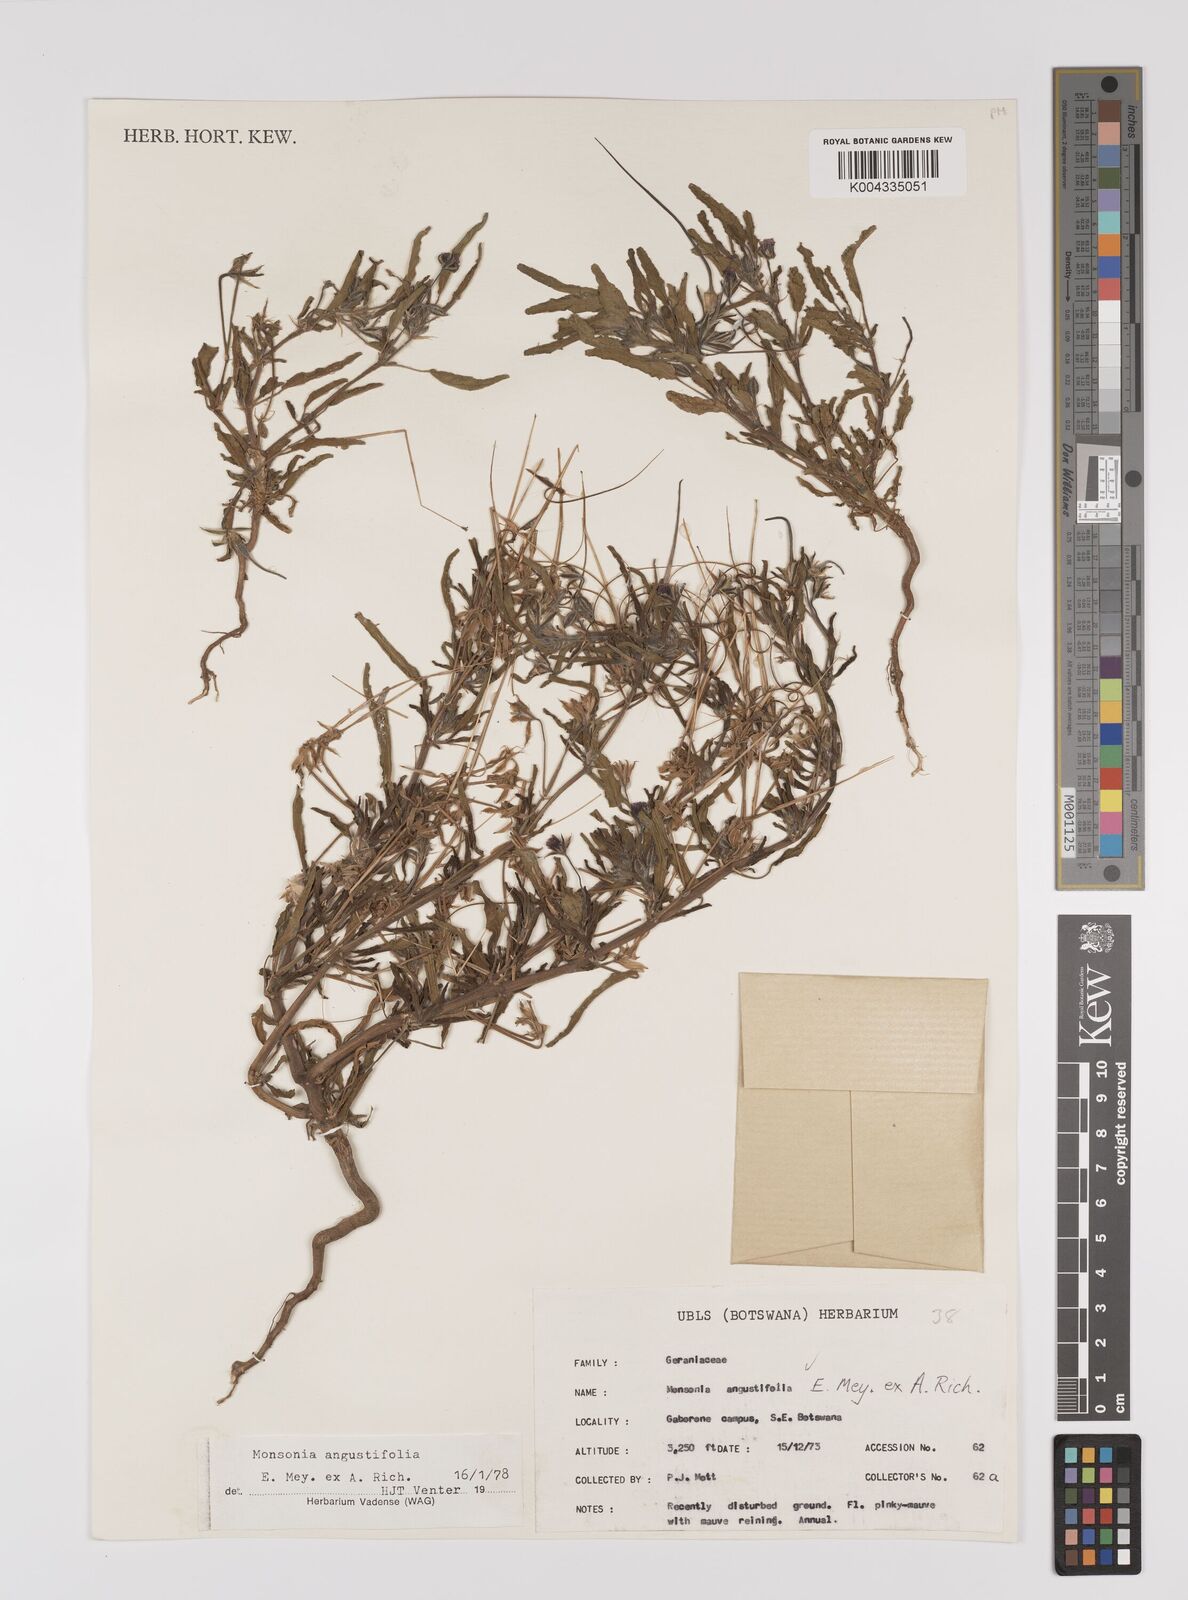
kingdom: Plantae
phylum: Tracheophyta
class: Magnoliopsida
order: Geraniales
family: Geraniaceae
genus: Monsonia
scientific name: Monsonia angustifolia
